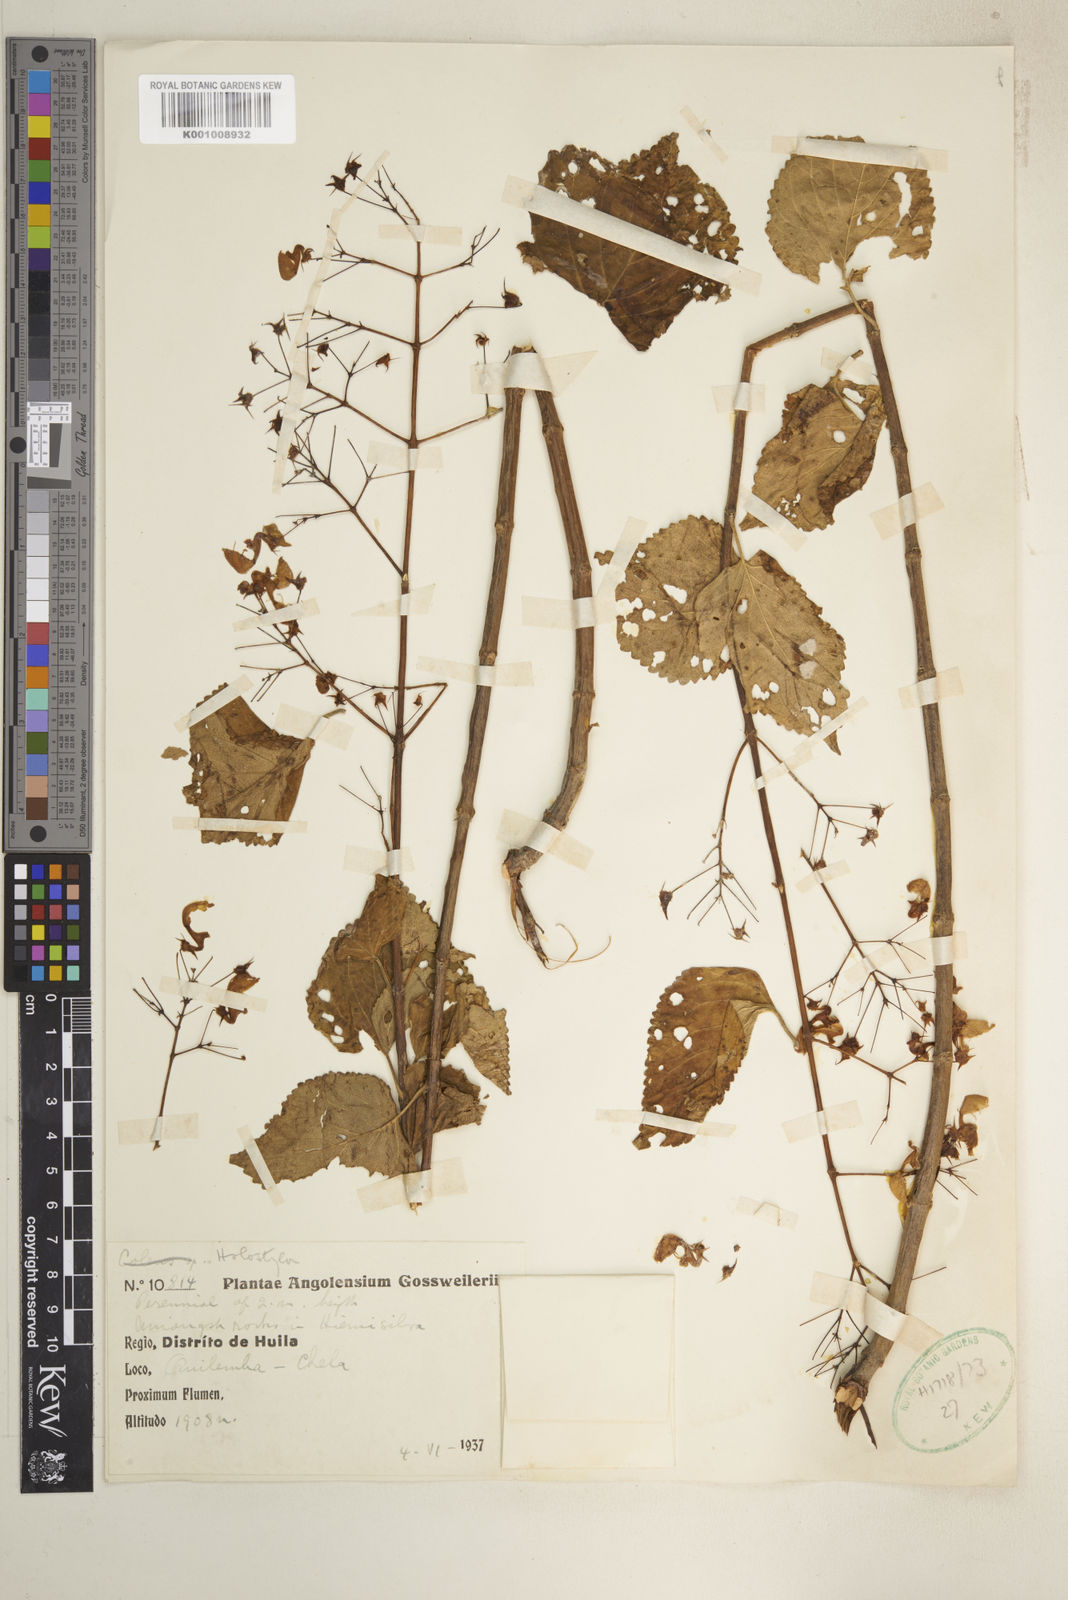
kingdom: Plantae
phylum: Tracheophyta
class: Magnoliopsida
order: Lamiales
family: Lamiaceae
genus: Plectranthus
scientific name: Plectranthus
